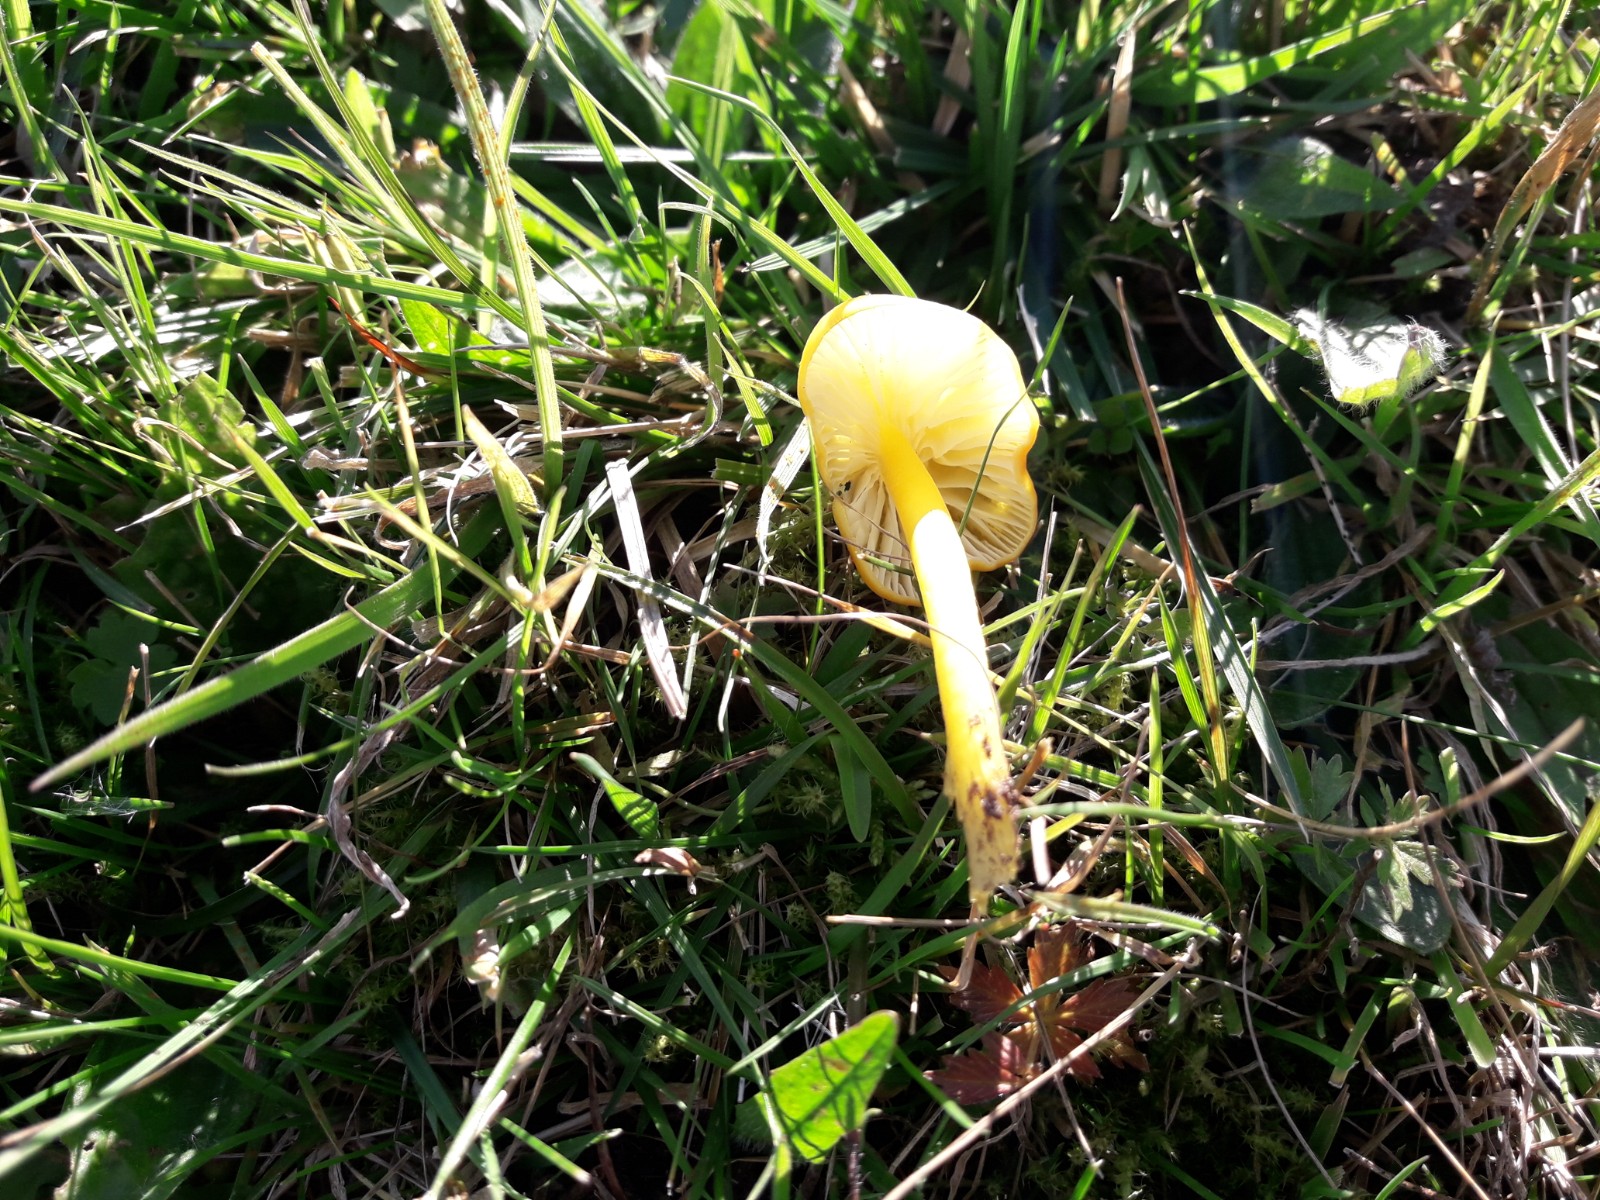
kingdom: Fungi
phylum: Basidiomycota
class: Agaricomycetes
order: Agaricales
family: Hygrophoraceae
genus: Hygrocybe
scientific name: Hygrocybe glutinipes
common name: slimstokket vokshat
